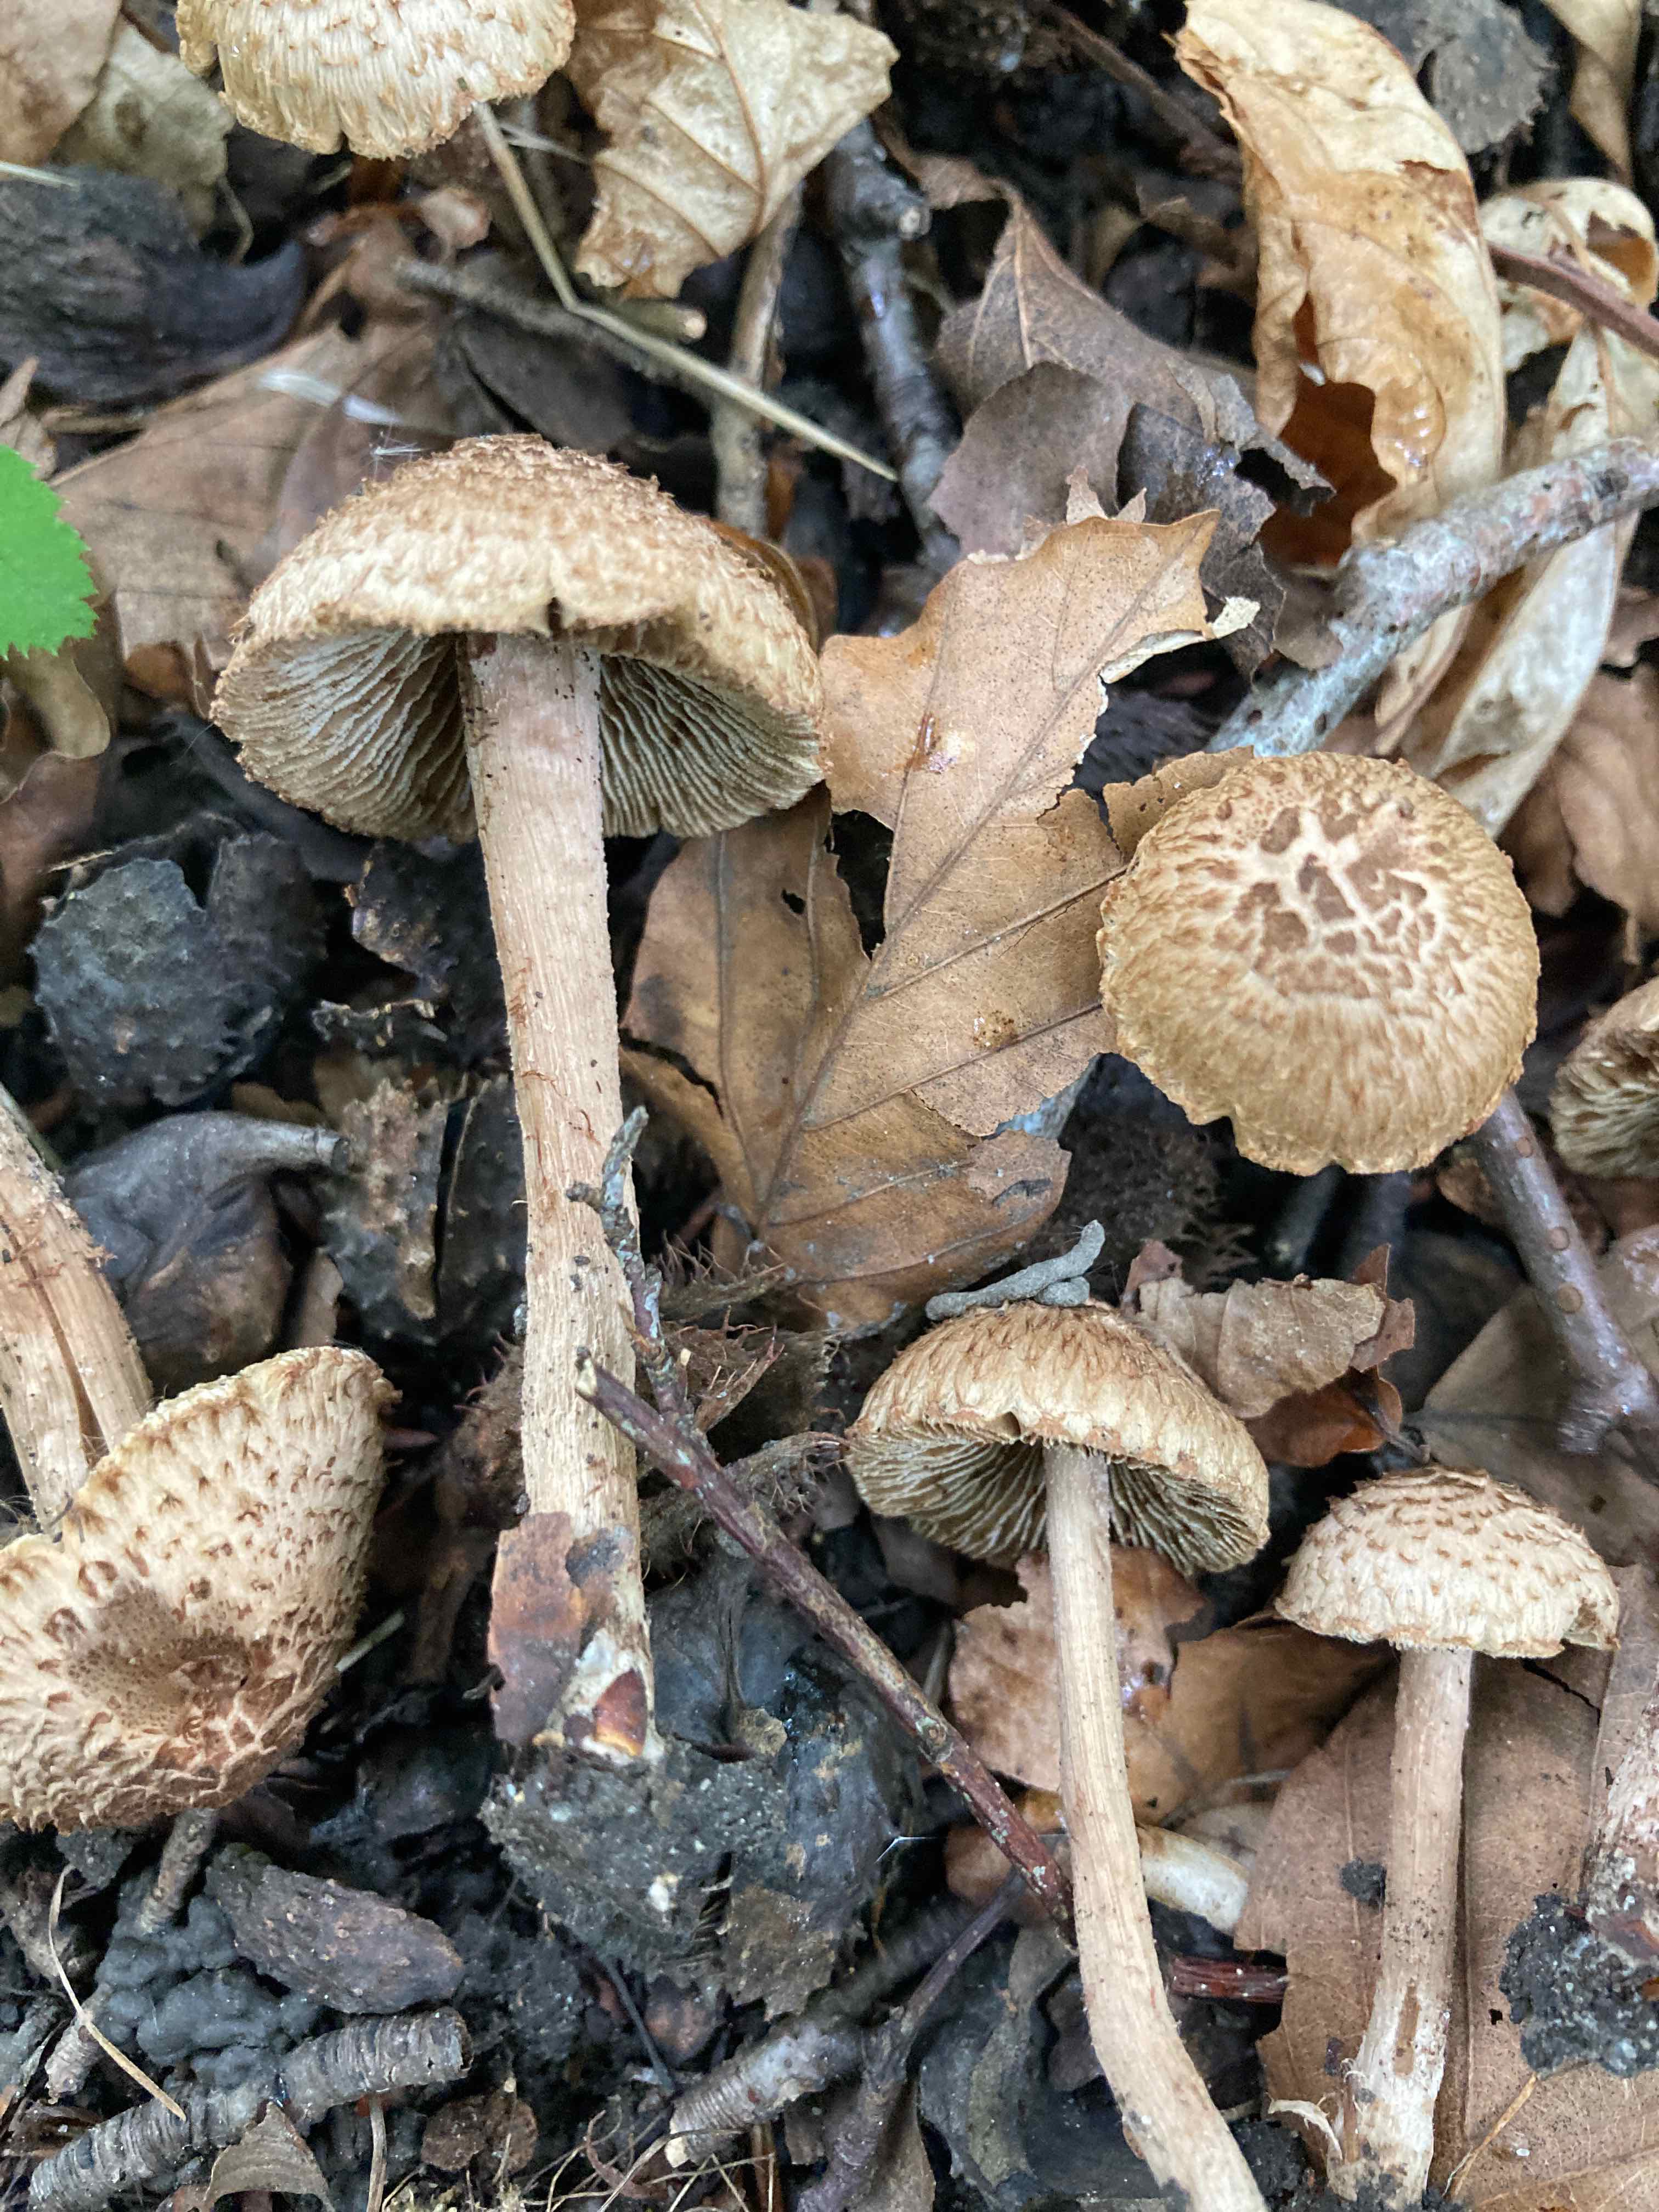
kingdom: Fungi
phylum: Basidiomycota
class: Agaricomycetes
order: Agaricales
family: Inocybaceae
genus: Inosperma
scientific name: Inosperma bongardii
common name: Bongards trævlhat
